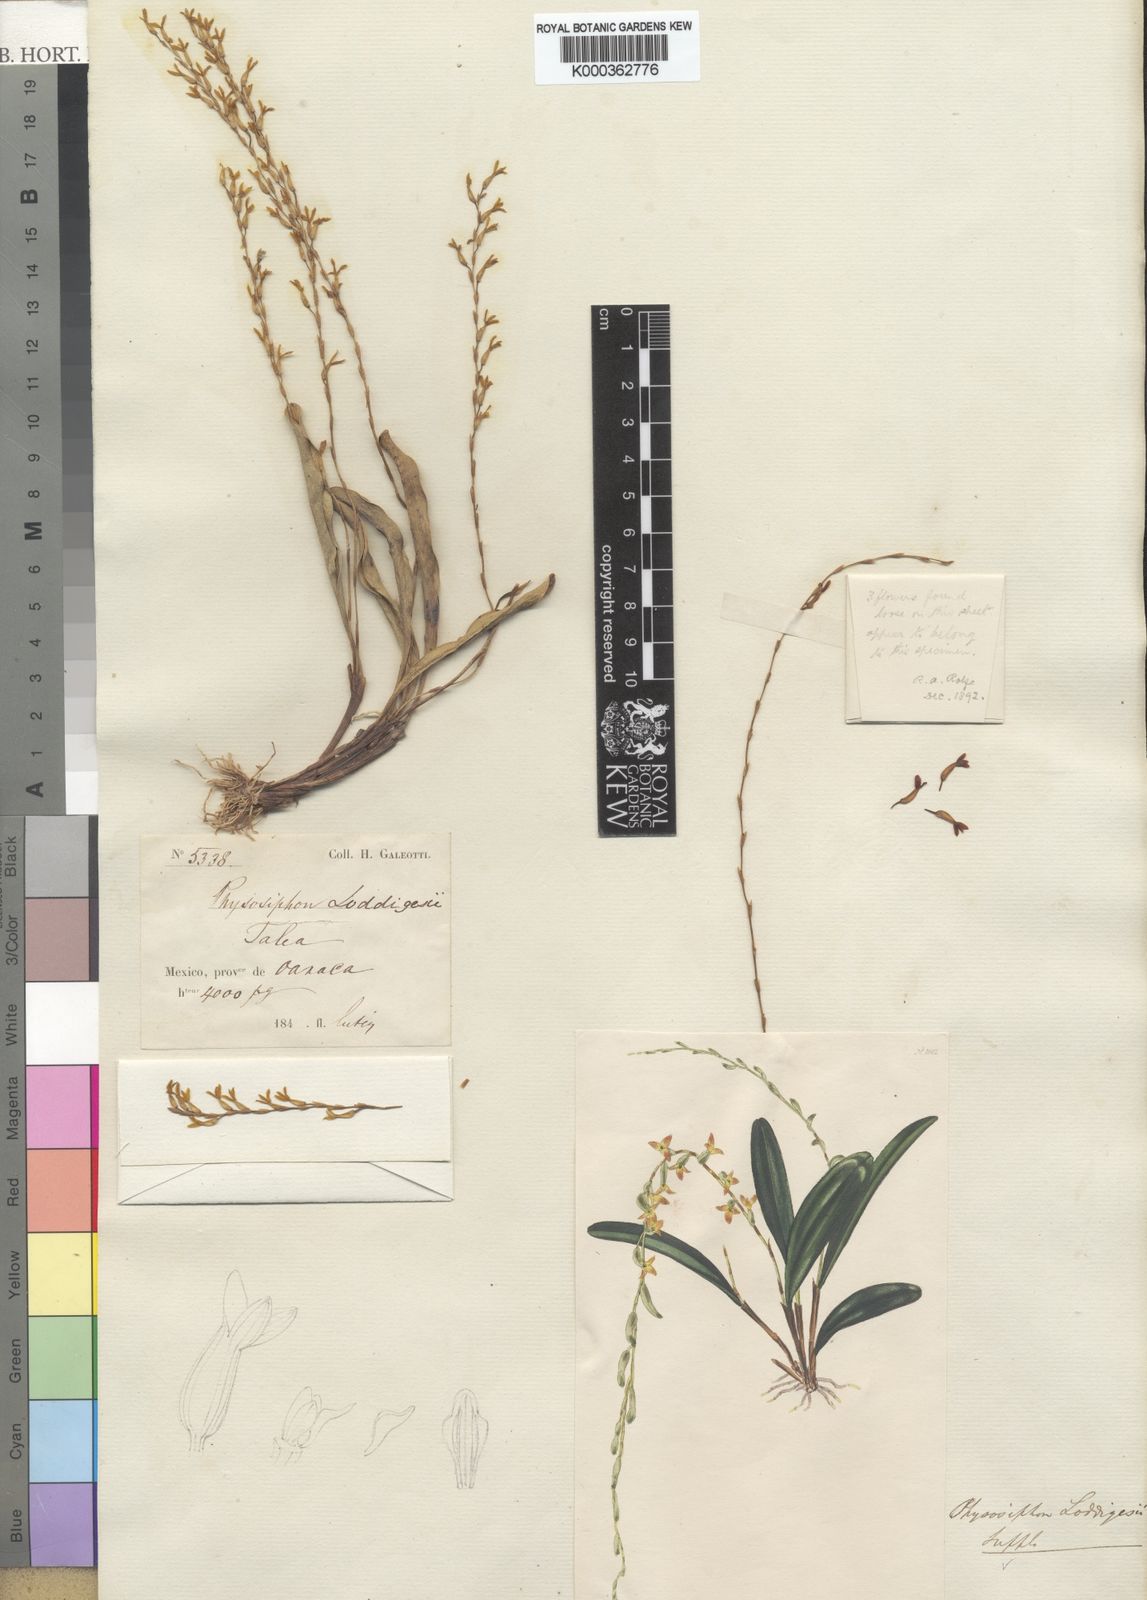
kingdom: Plantae
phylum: Tracheophyta
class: Liliopsida
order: Asparagales
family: Orchidaceae
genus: Stelis
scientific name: Stelis emarginata
